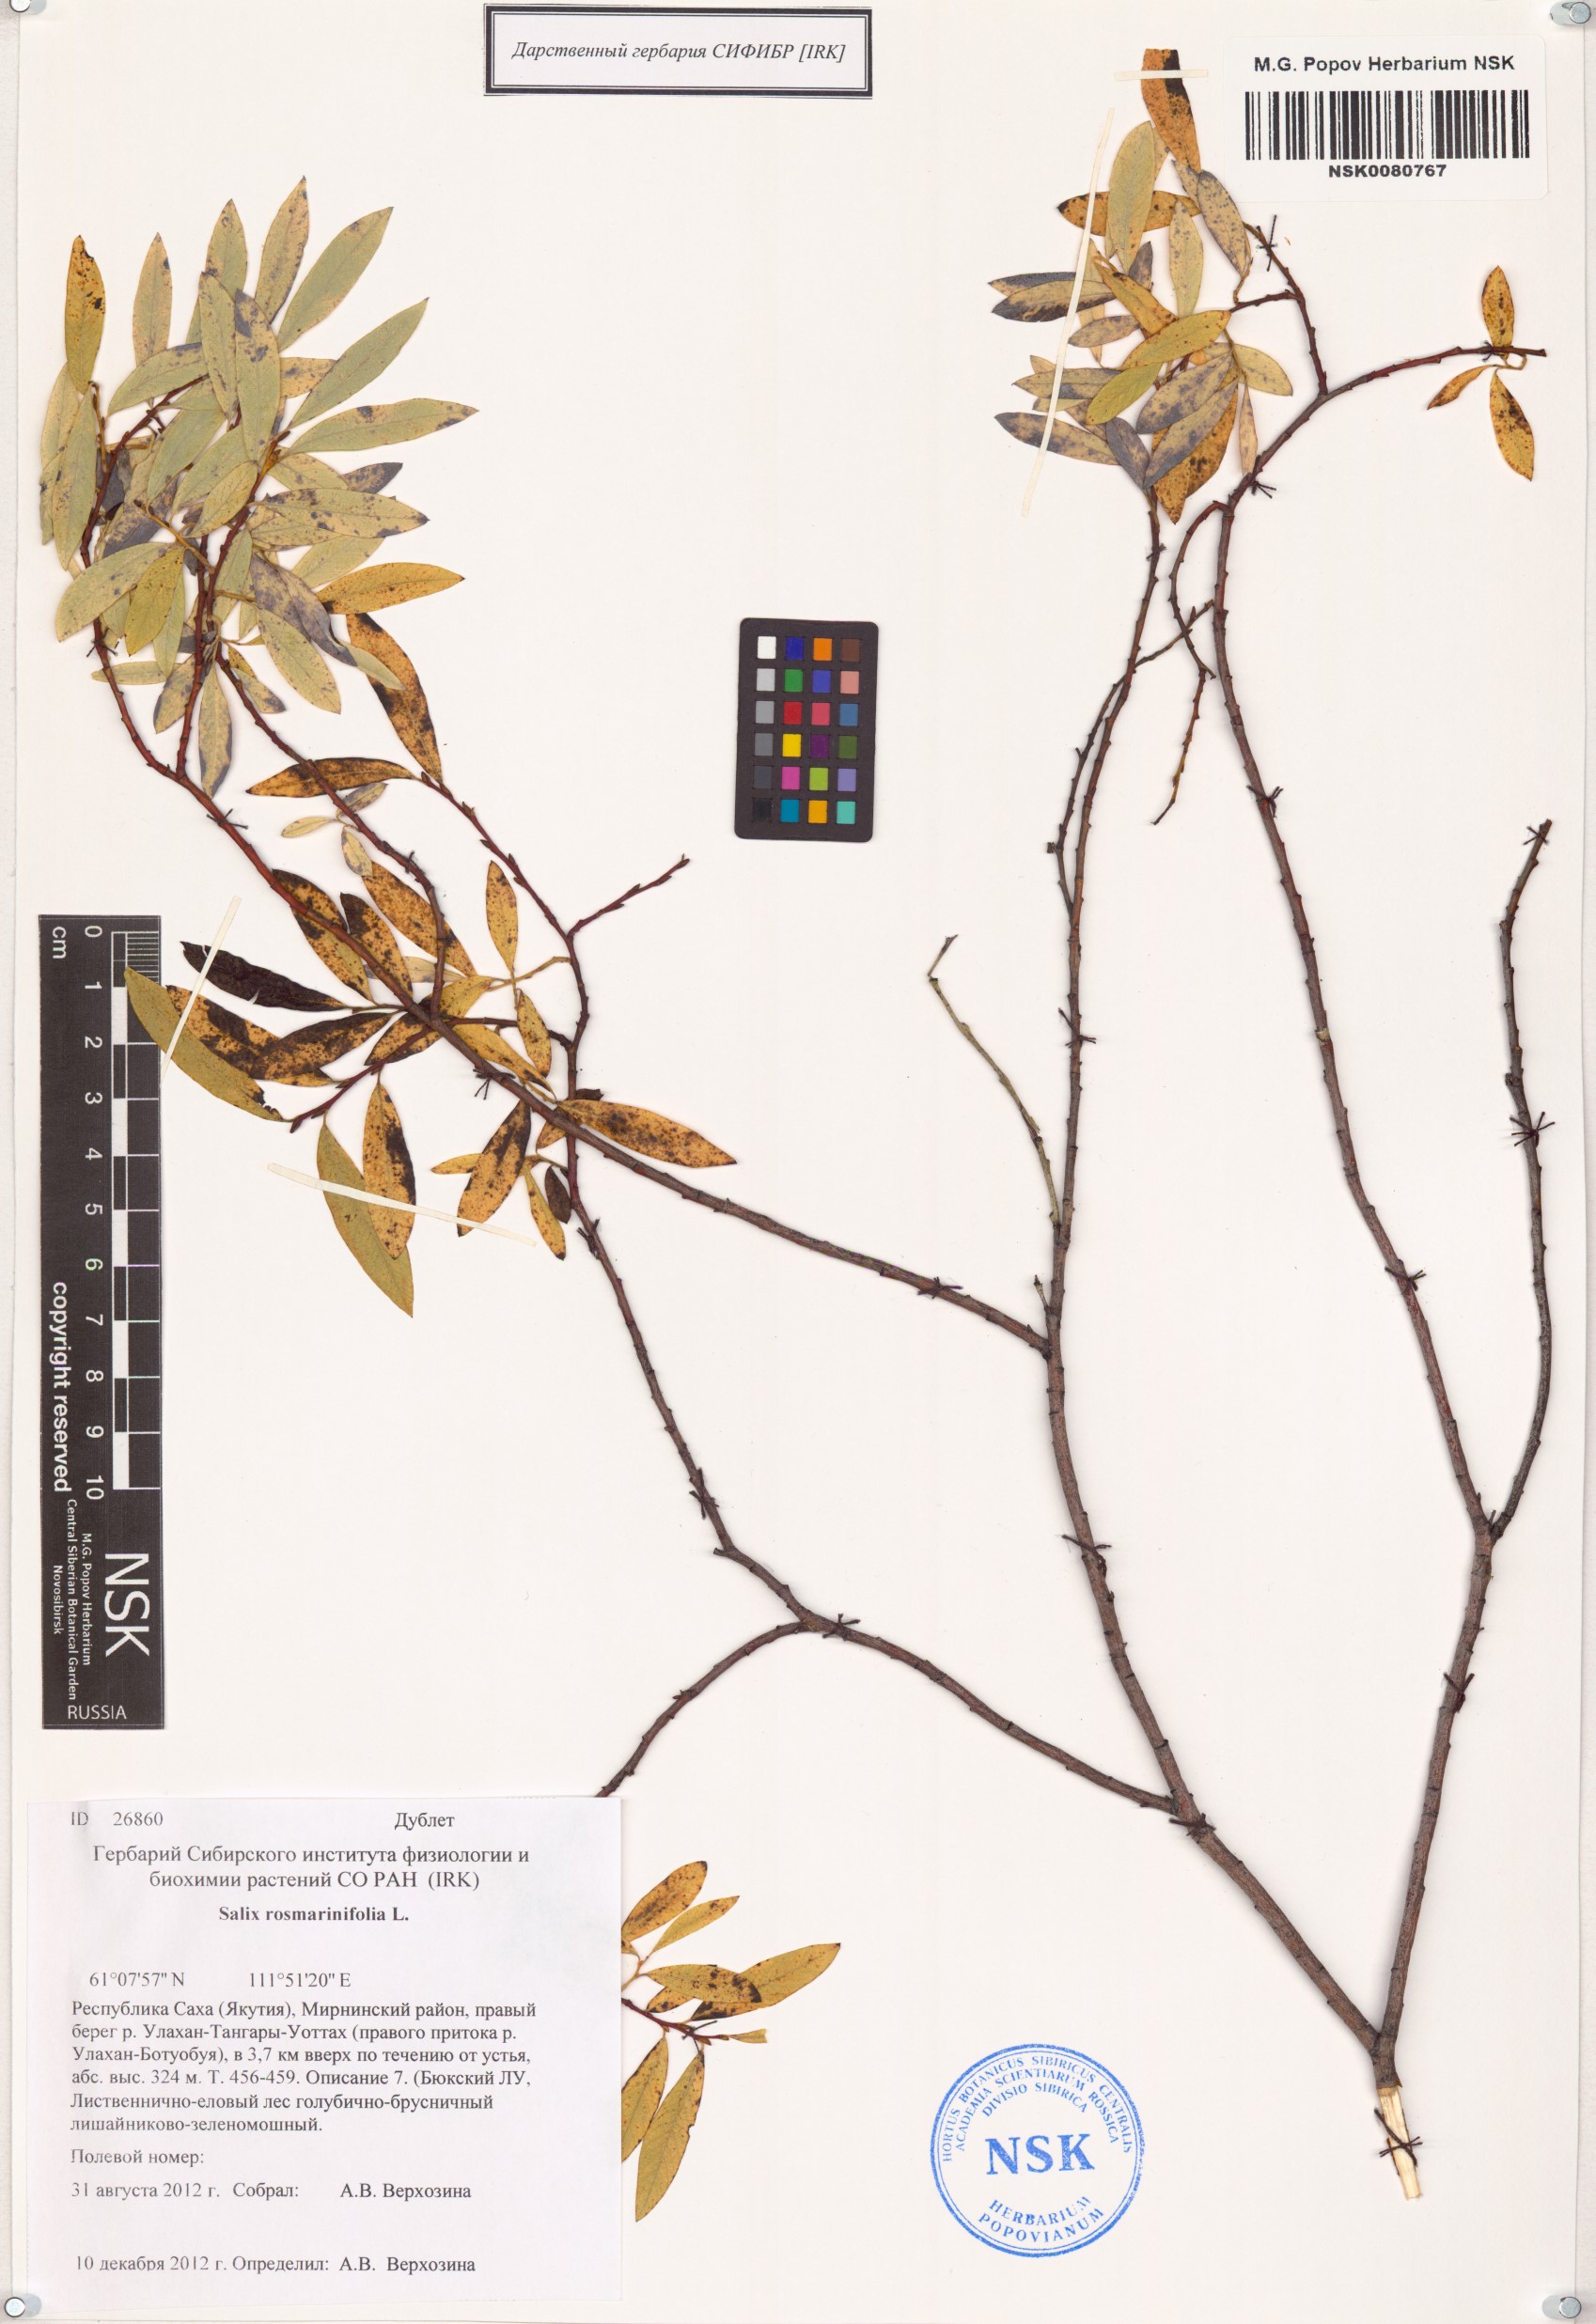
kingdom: Plantae
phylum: Tracheophyta
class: Magnoliopsida
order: Malpighiales
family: Salicaceae
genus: Salix
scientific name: Salix rosmarinifolia
